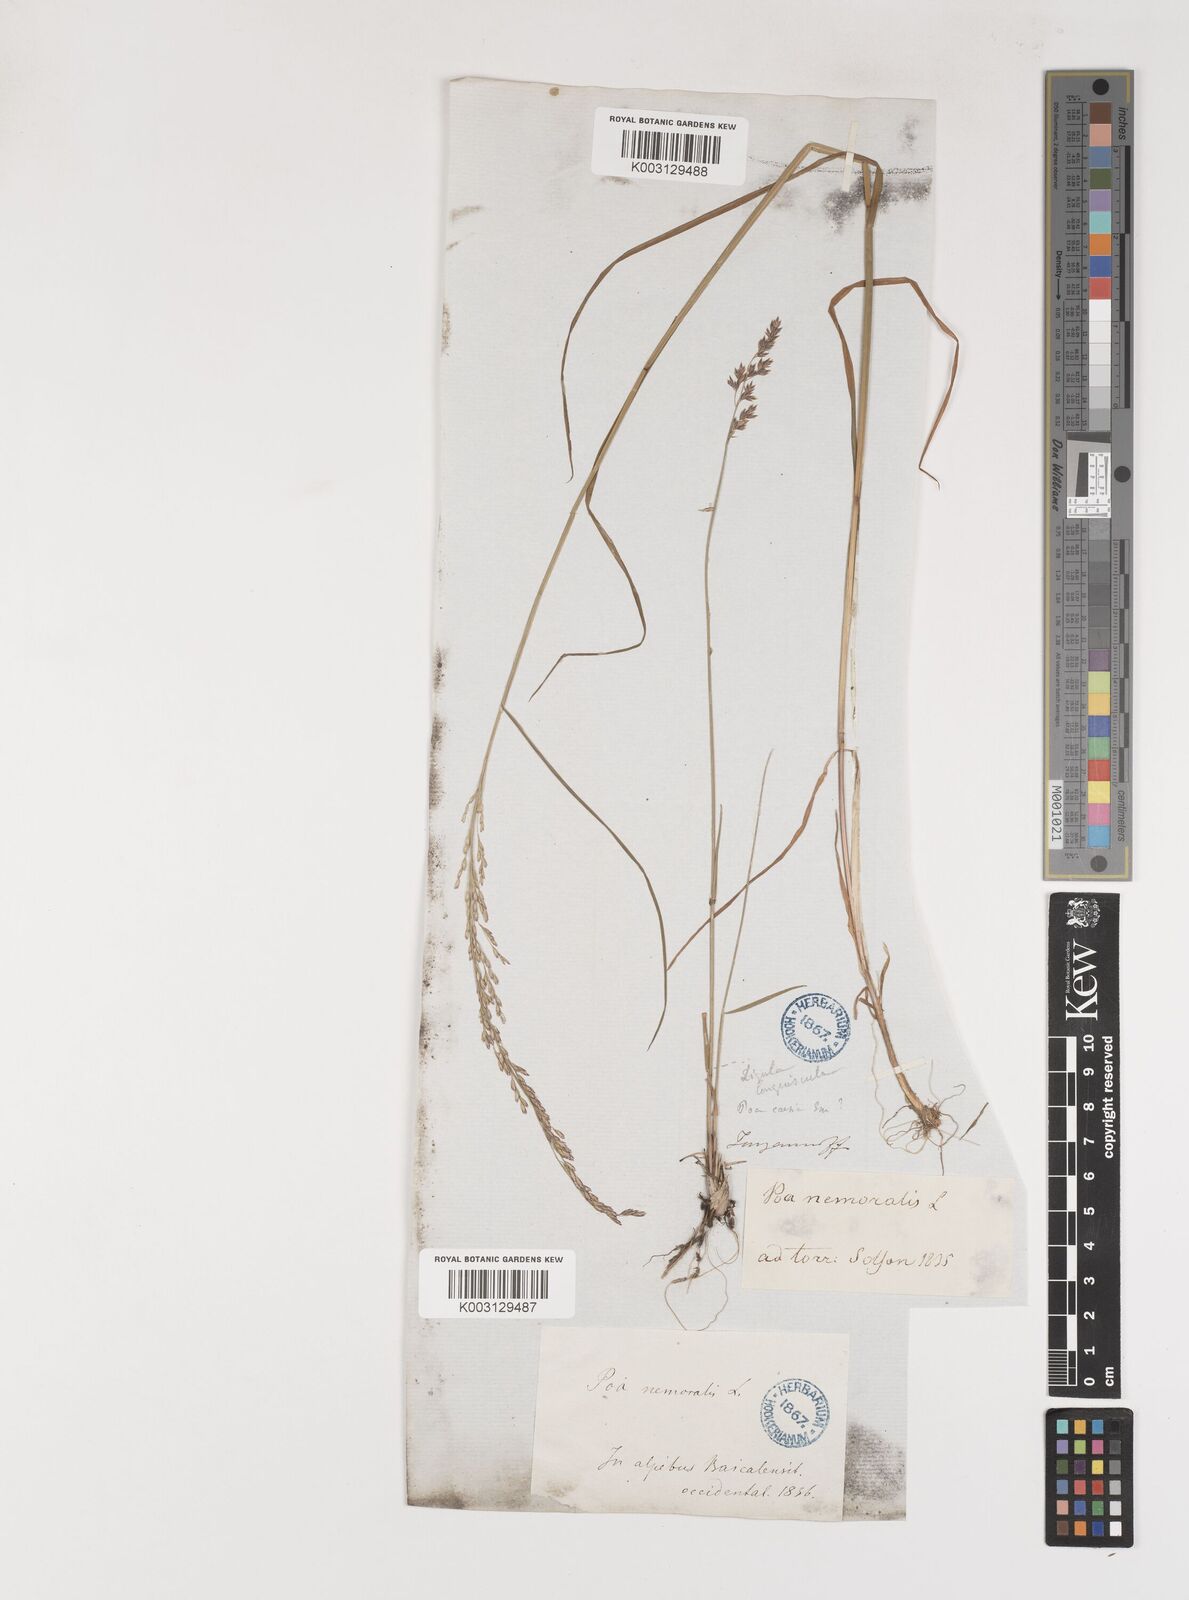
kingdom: Plantae
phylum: Tracheophyta
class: Liliopsida
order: Poales
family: Poaceae
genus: Poa
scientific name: Poa glauca
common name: Glaucous bluegrass
